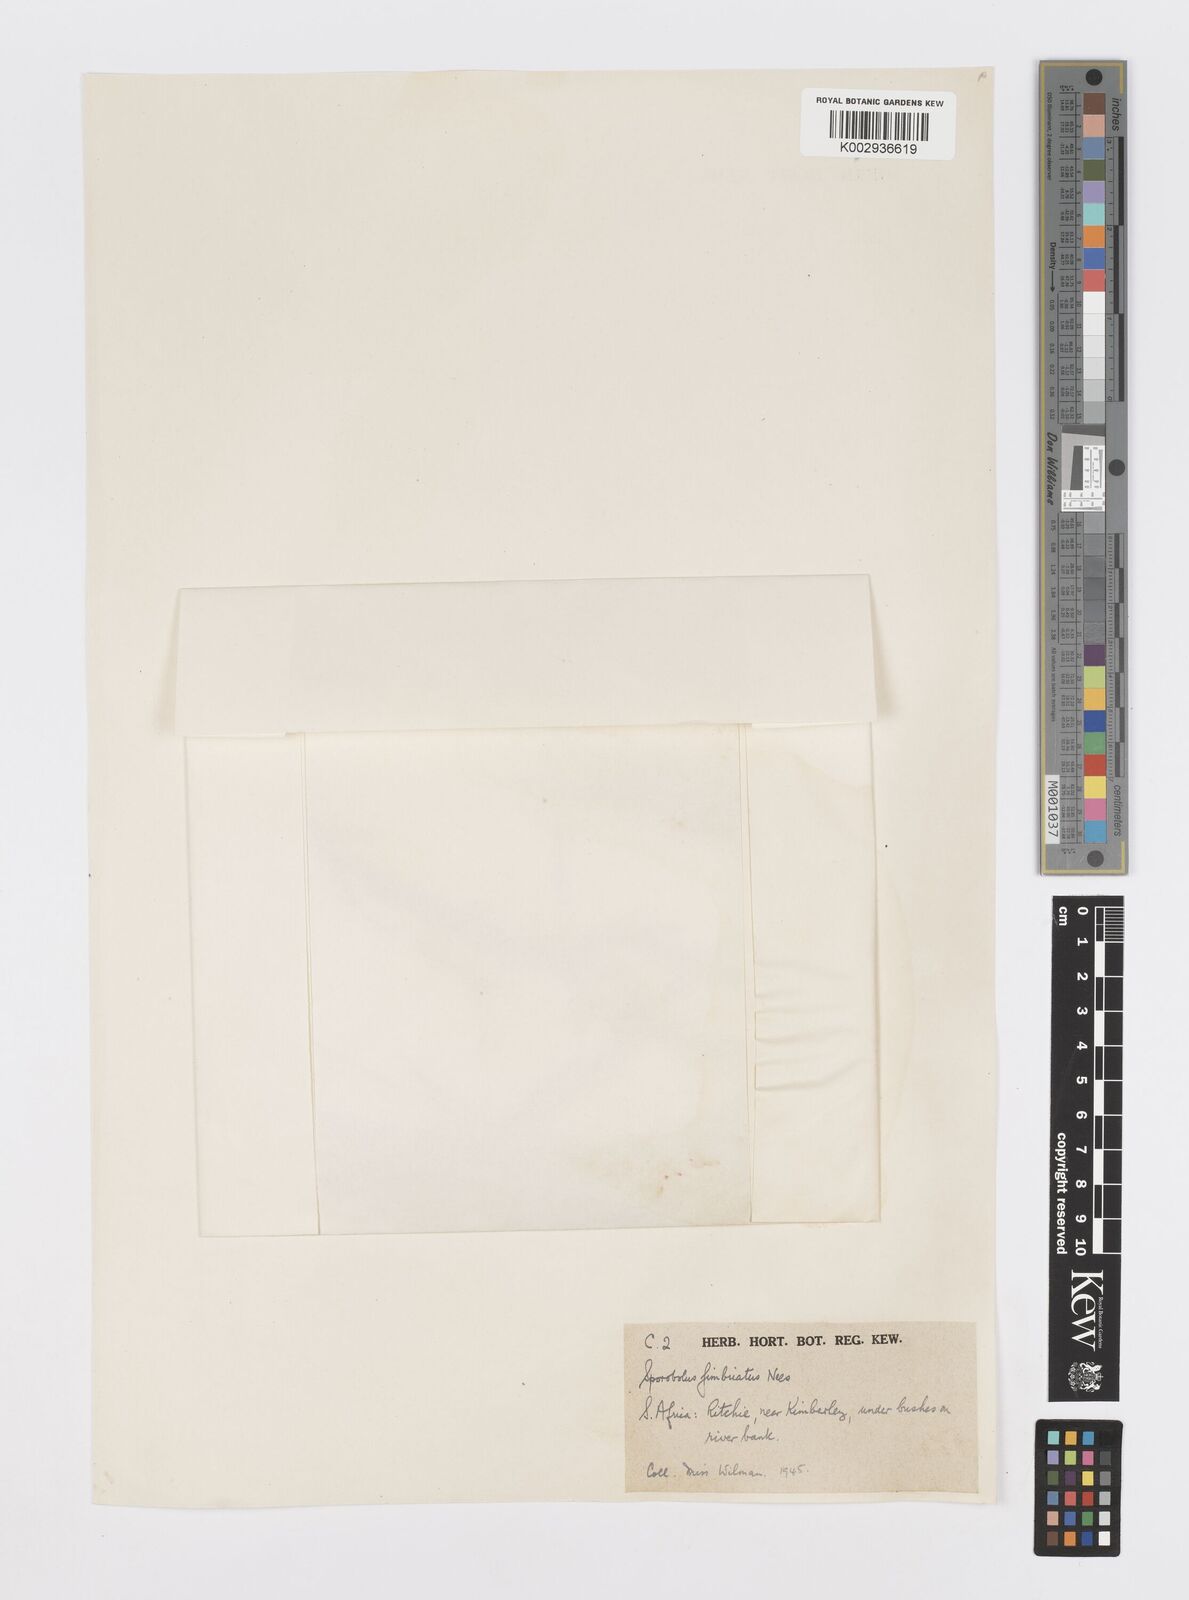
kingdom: Plantae
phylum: Tracheophyta
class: Liliopsida
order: Poales
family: Poaceae
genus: Sporobolus
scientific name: Sporobolus fimbriatus
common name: Fringed dropseed
